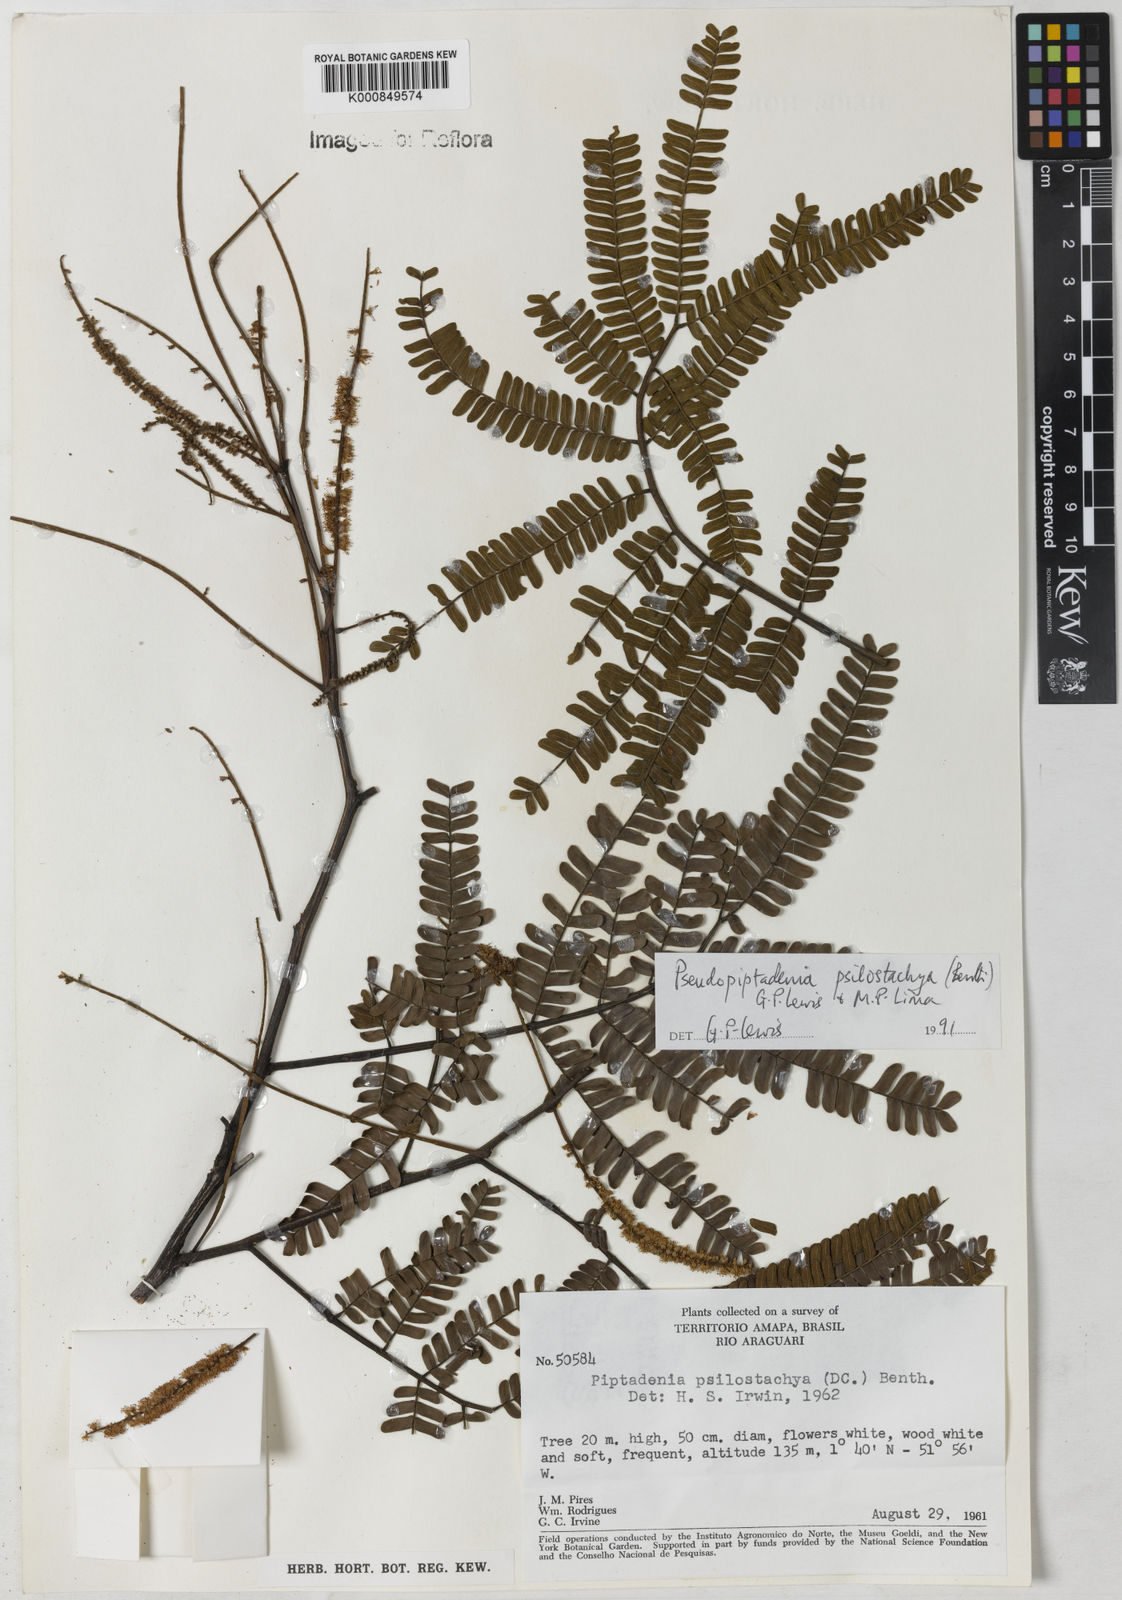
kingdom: Plantae
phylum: Tracheophyta
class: Magnoliopsida
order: Fabales
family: Fabaceae
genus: Pseudopiptadenia
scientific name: Pseudopiptadenia psilostachya
